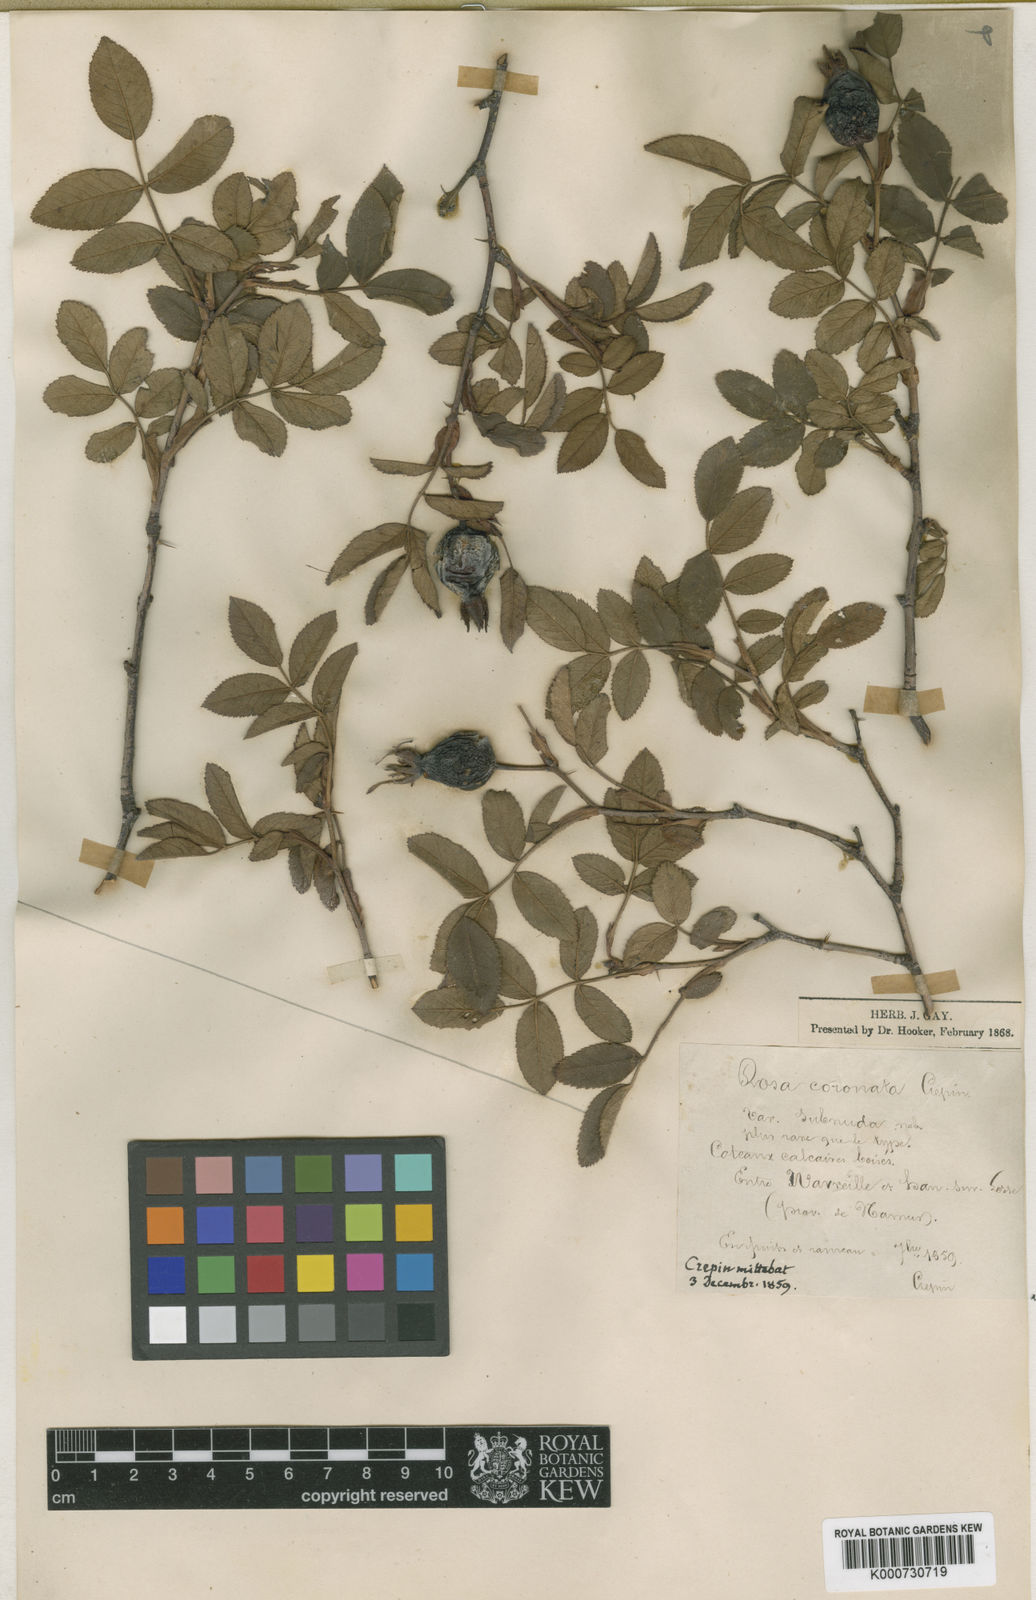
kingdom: Plantae
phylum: Tracheophyta
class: Magnoliopsida
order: Rosales
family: Rosaceae
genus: Rosa
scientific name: Rosa involuta
